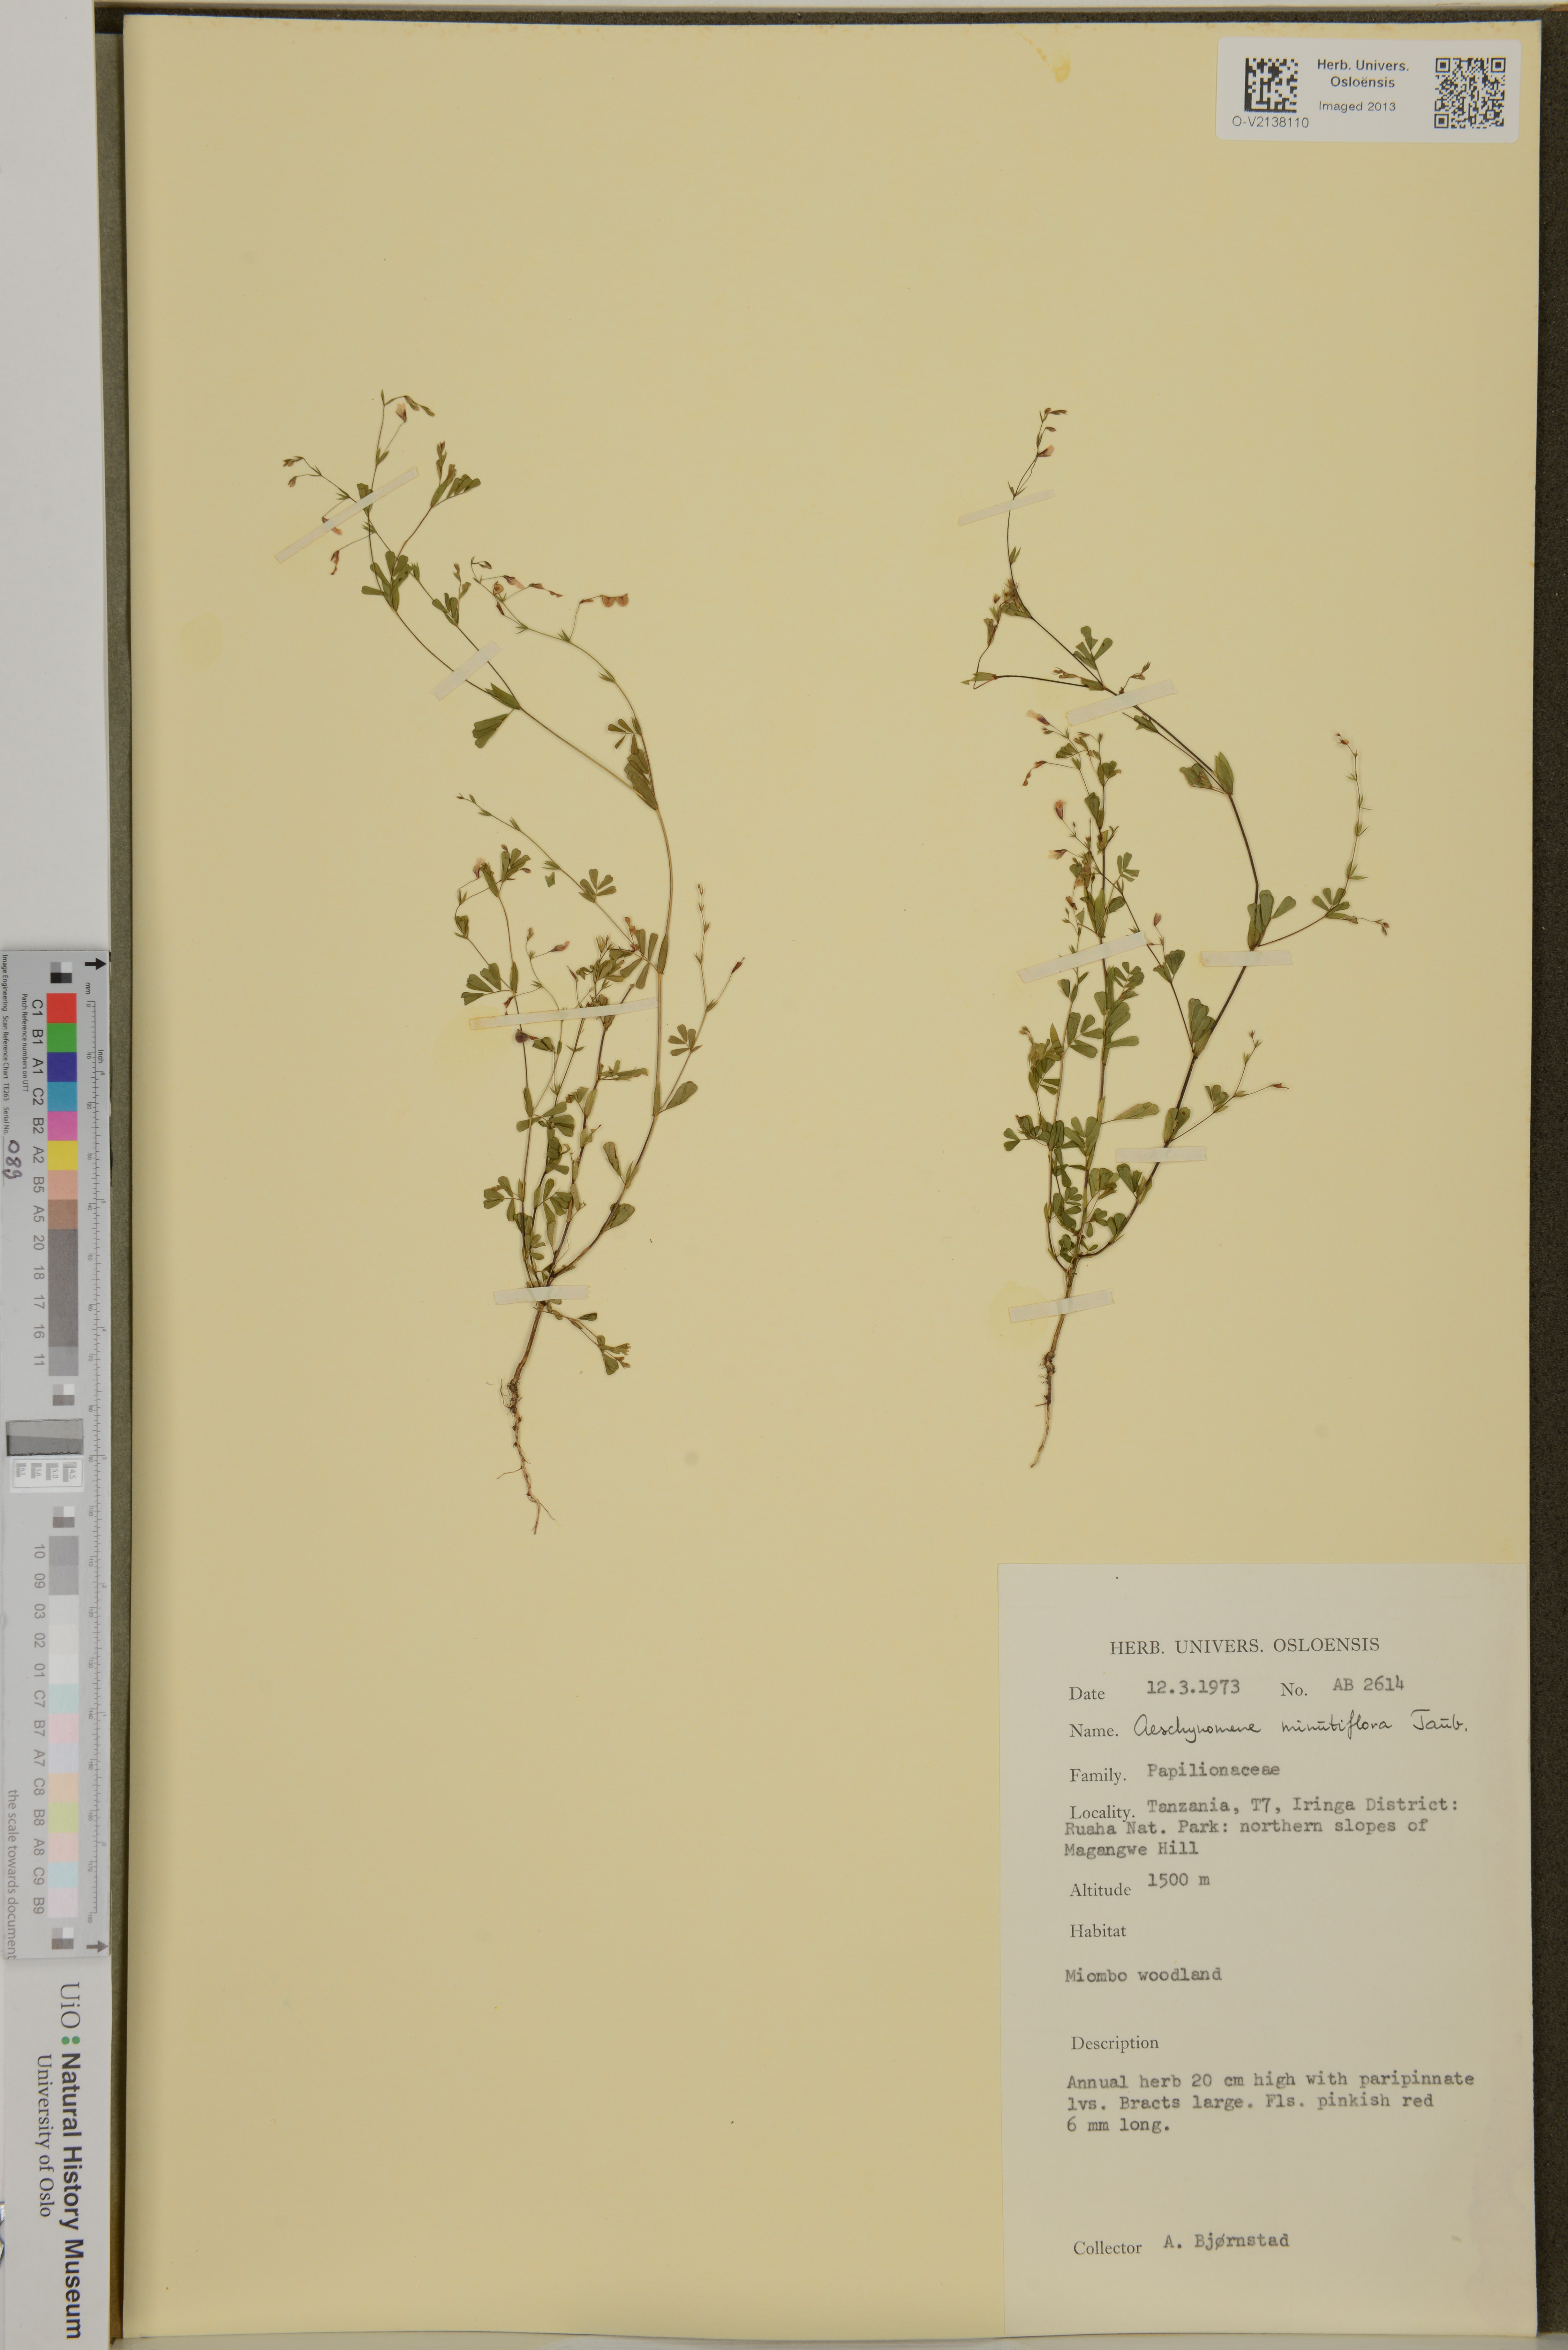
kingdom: Plantae
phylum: Tracheophyta
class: Magnoliopsida
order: Fabales
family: Fabaceae
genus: Aeschynomene
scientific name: Aeschynomene minutiflora
